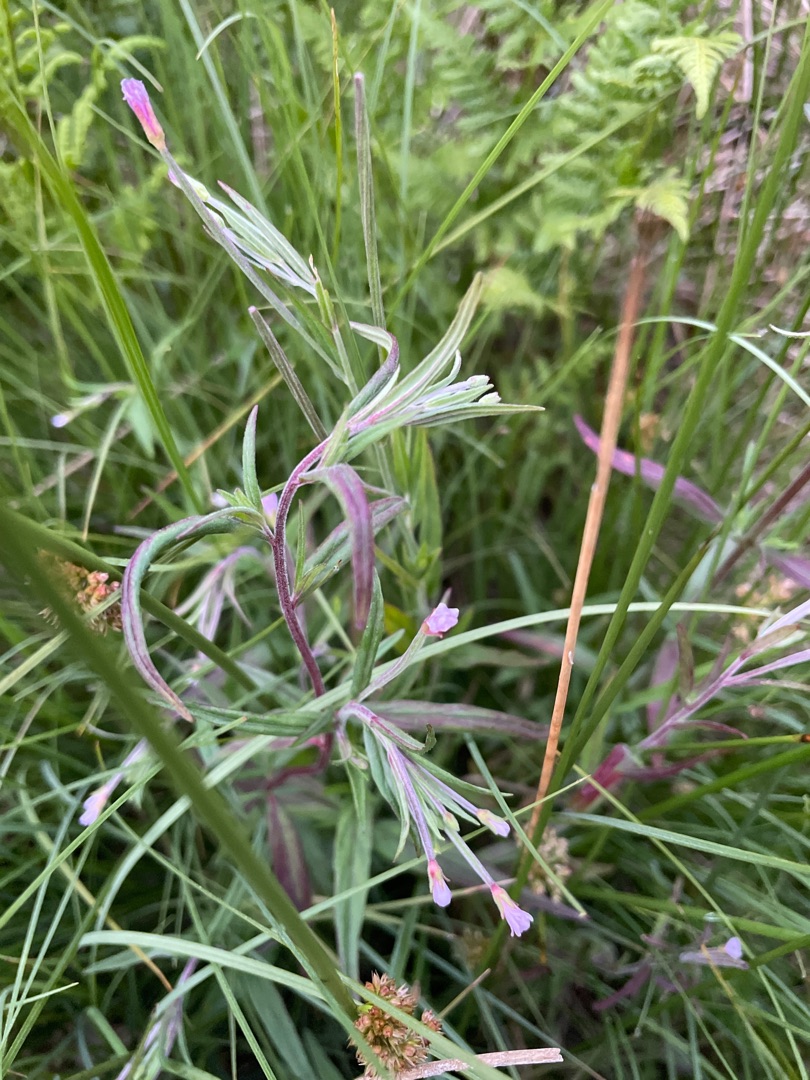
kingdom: Plantae
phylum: Tracheophyta
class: Magnoliopsida
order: Myrtales
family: Onagraceae
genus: Epilobium
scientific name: Epilobium palustre
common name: Kær-dueurt
